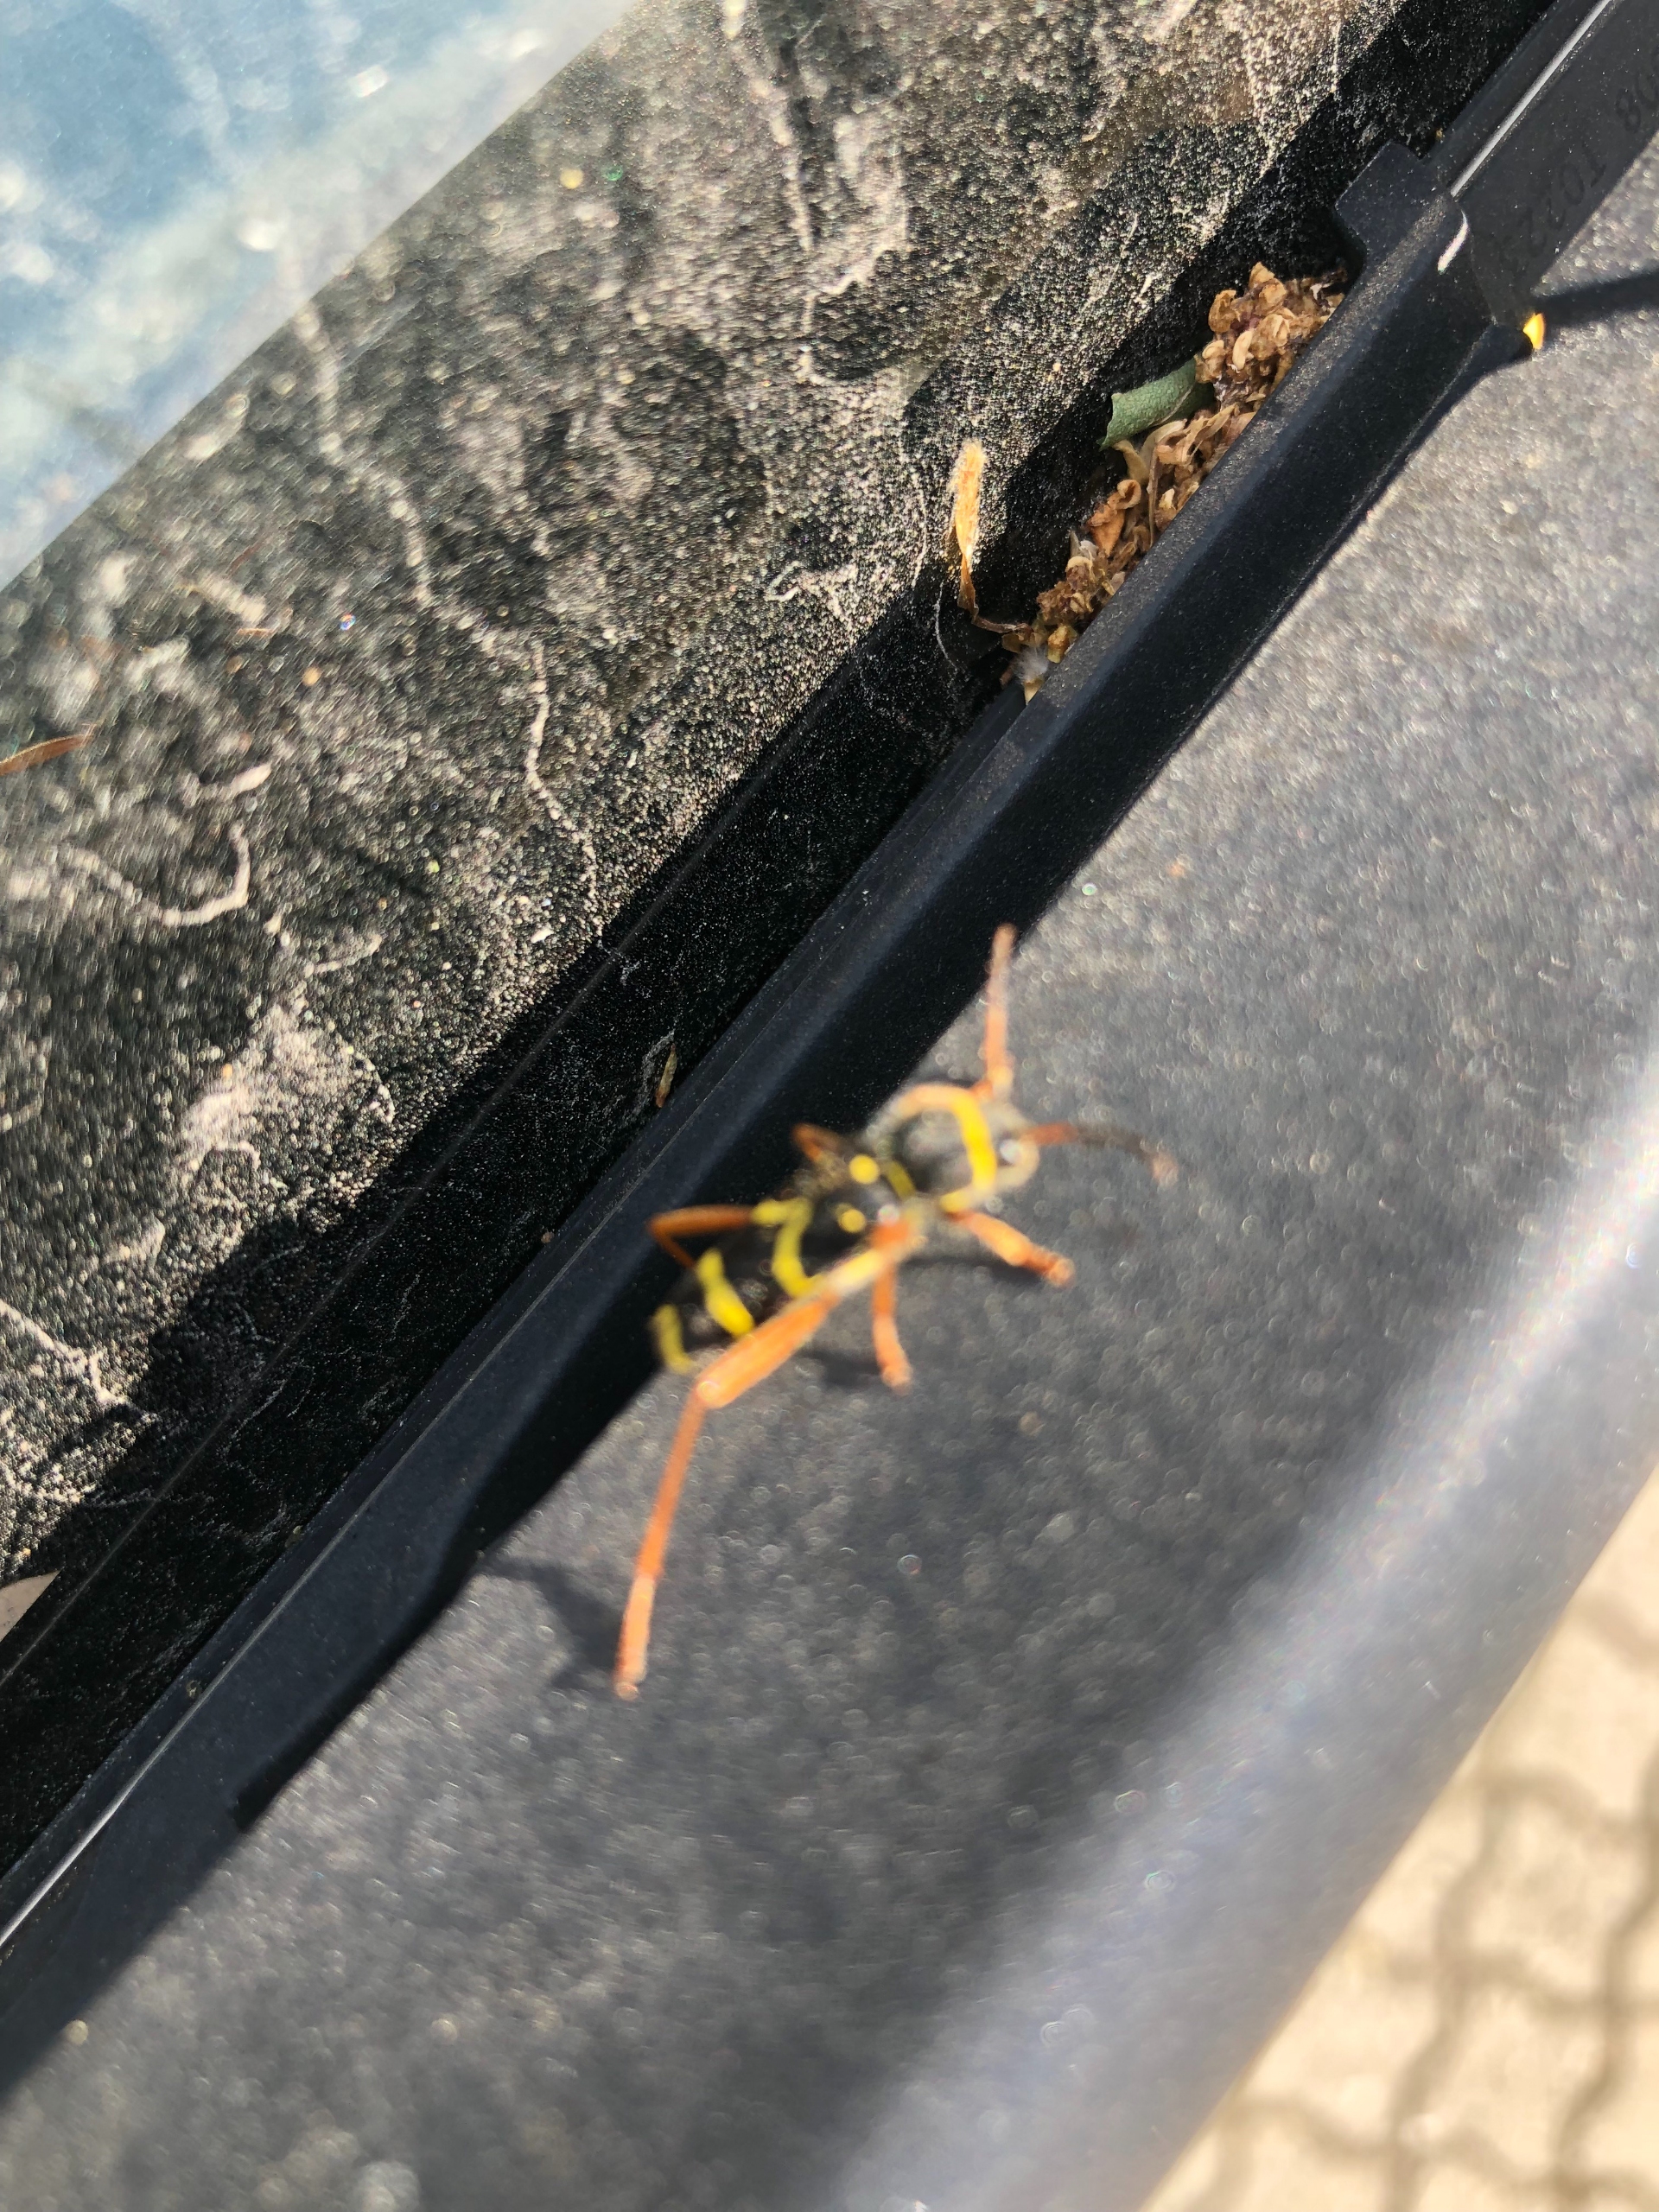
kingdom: Animalia
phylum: Arthropoda
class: Insecta
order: Coleoptera
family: Cerambycidae
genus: Clytus
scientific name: Clytus arietis
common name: Lille hvepsebuk
